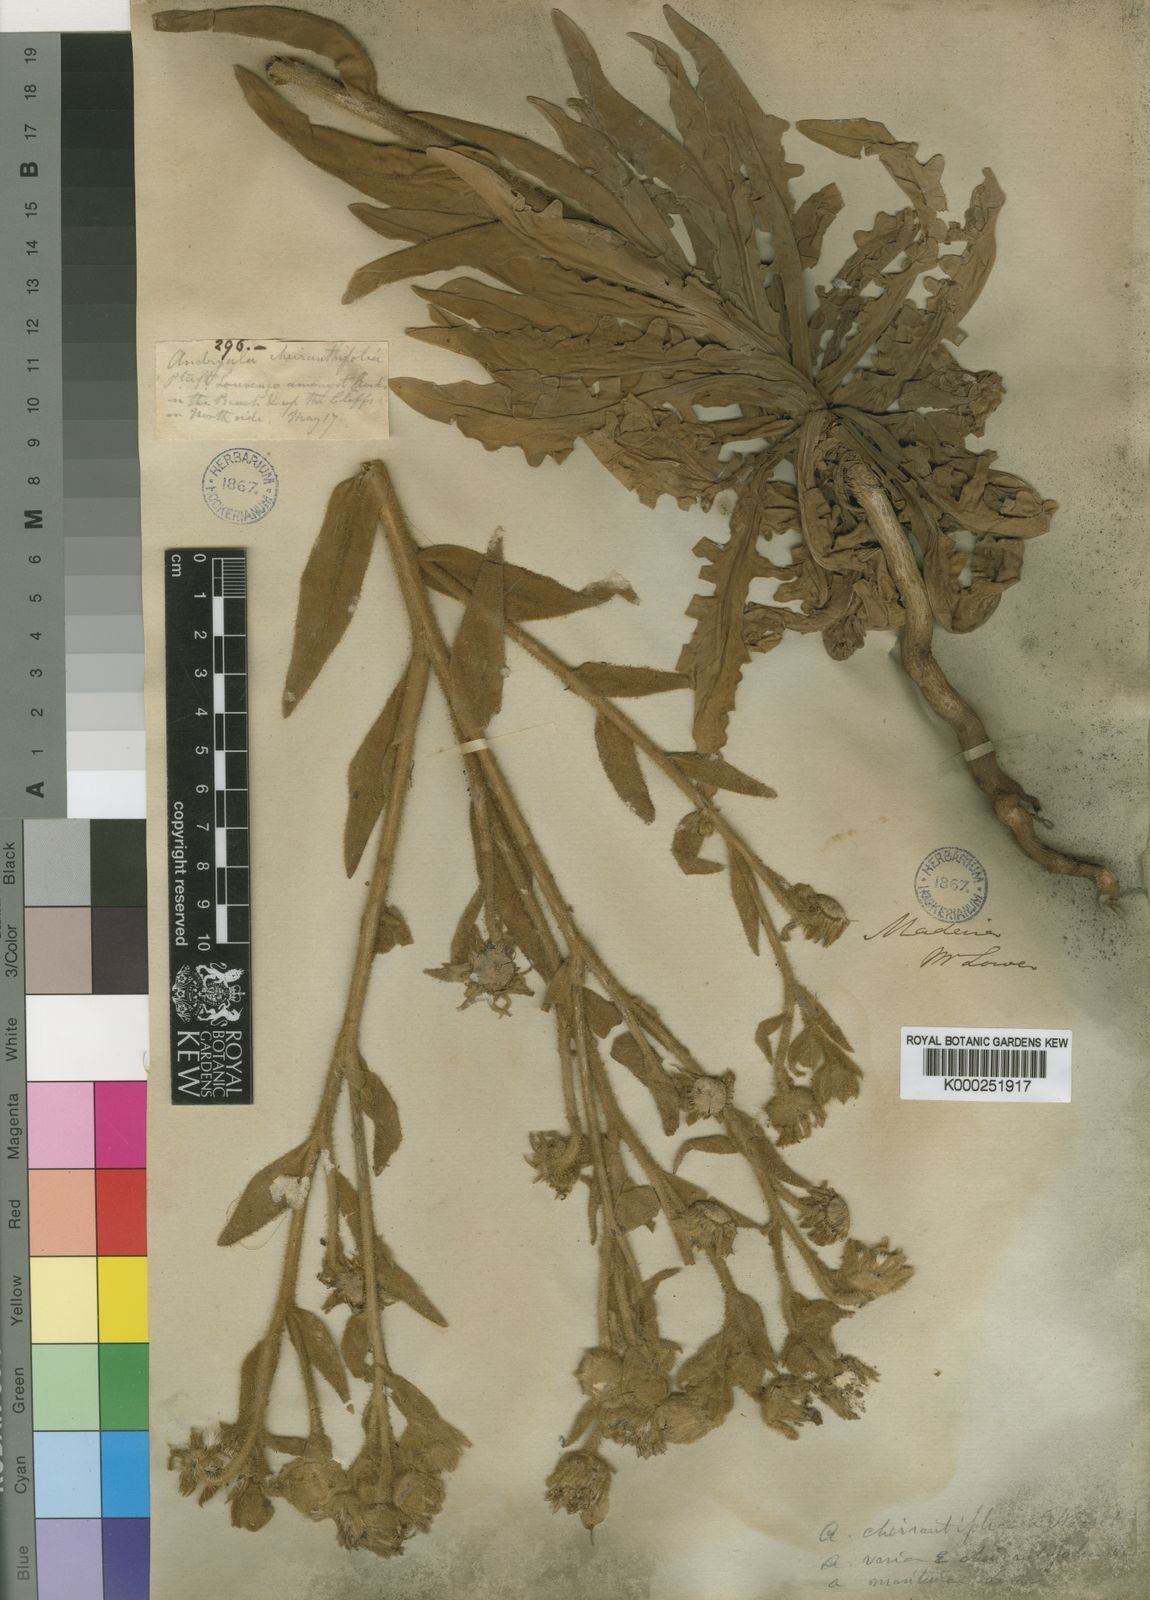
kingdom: Plantae
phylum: Tracheophyta
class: Magnoliopsida
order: Asterales
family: Asteraceae
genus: Andryala
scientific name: Andryala glandulosa
